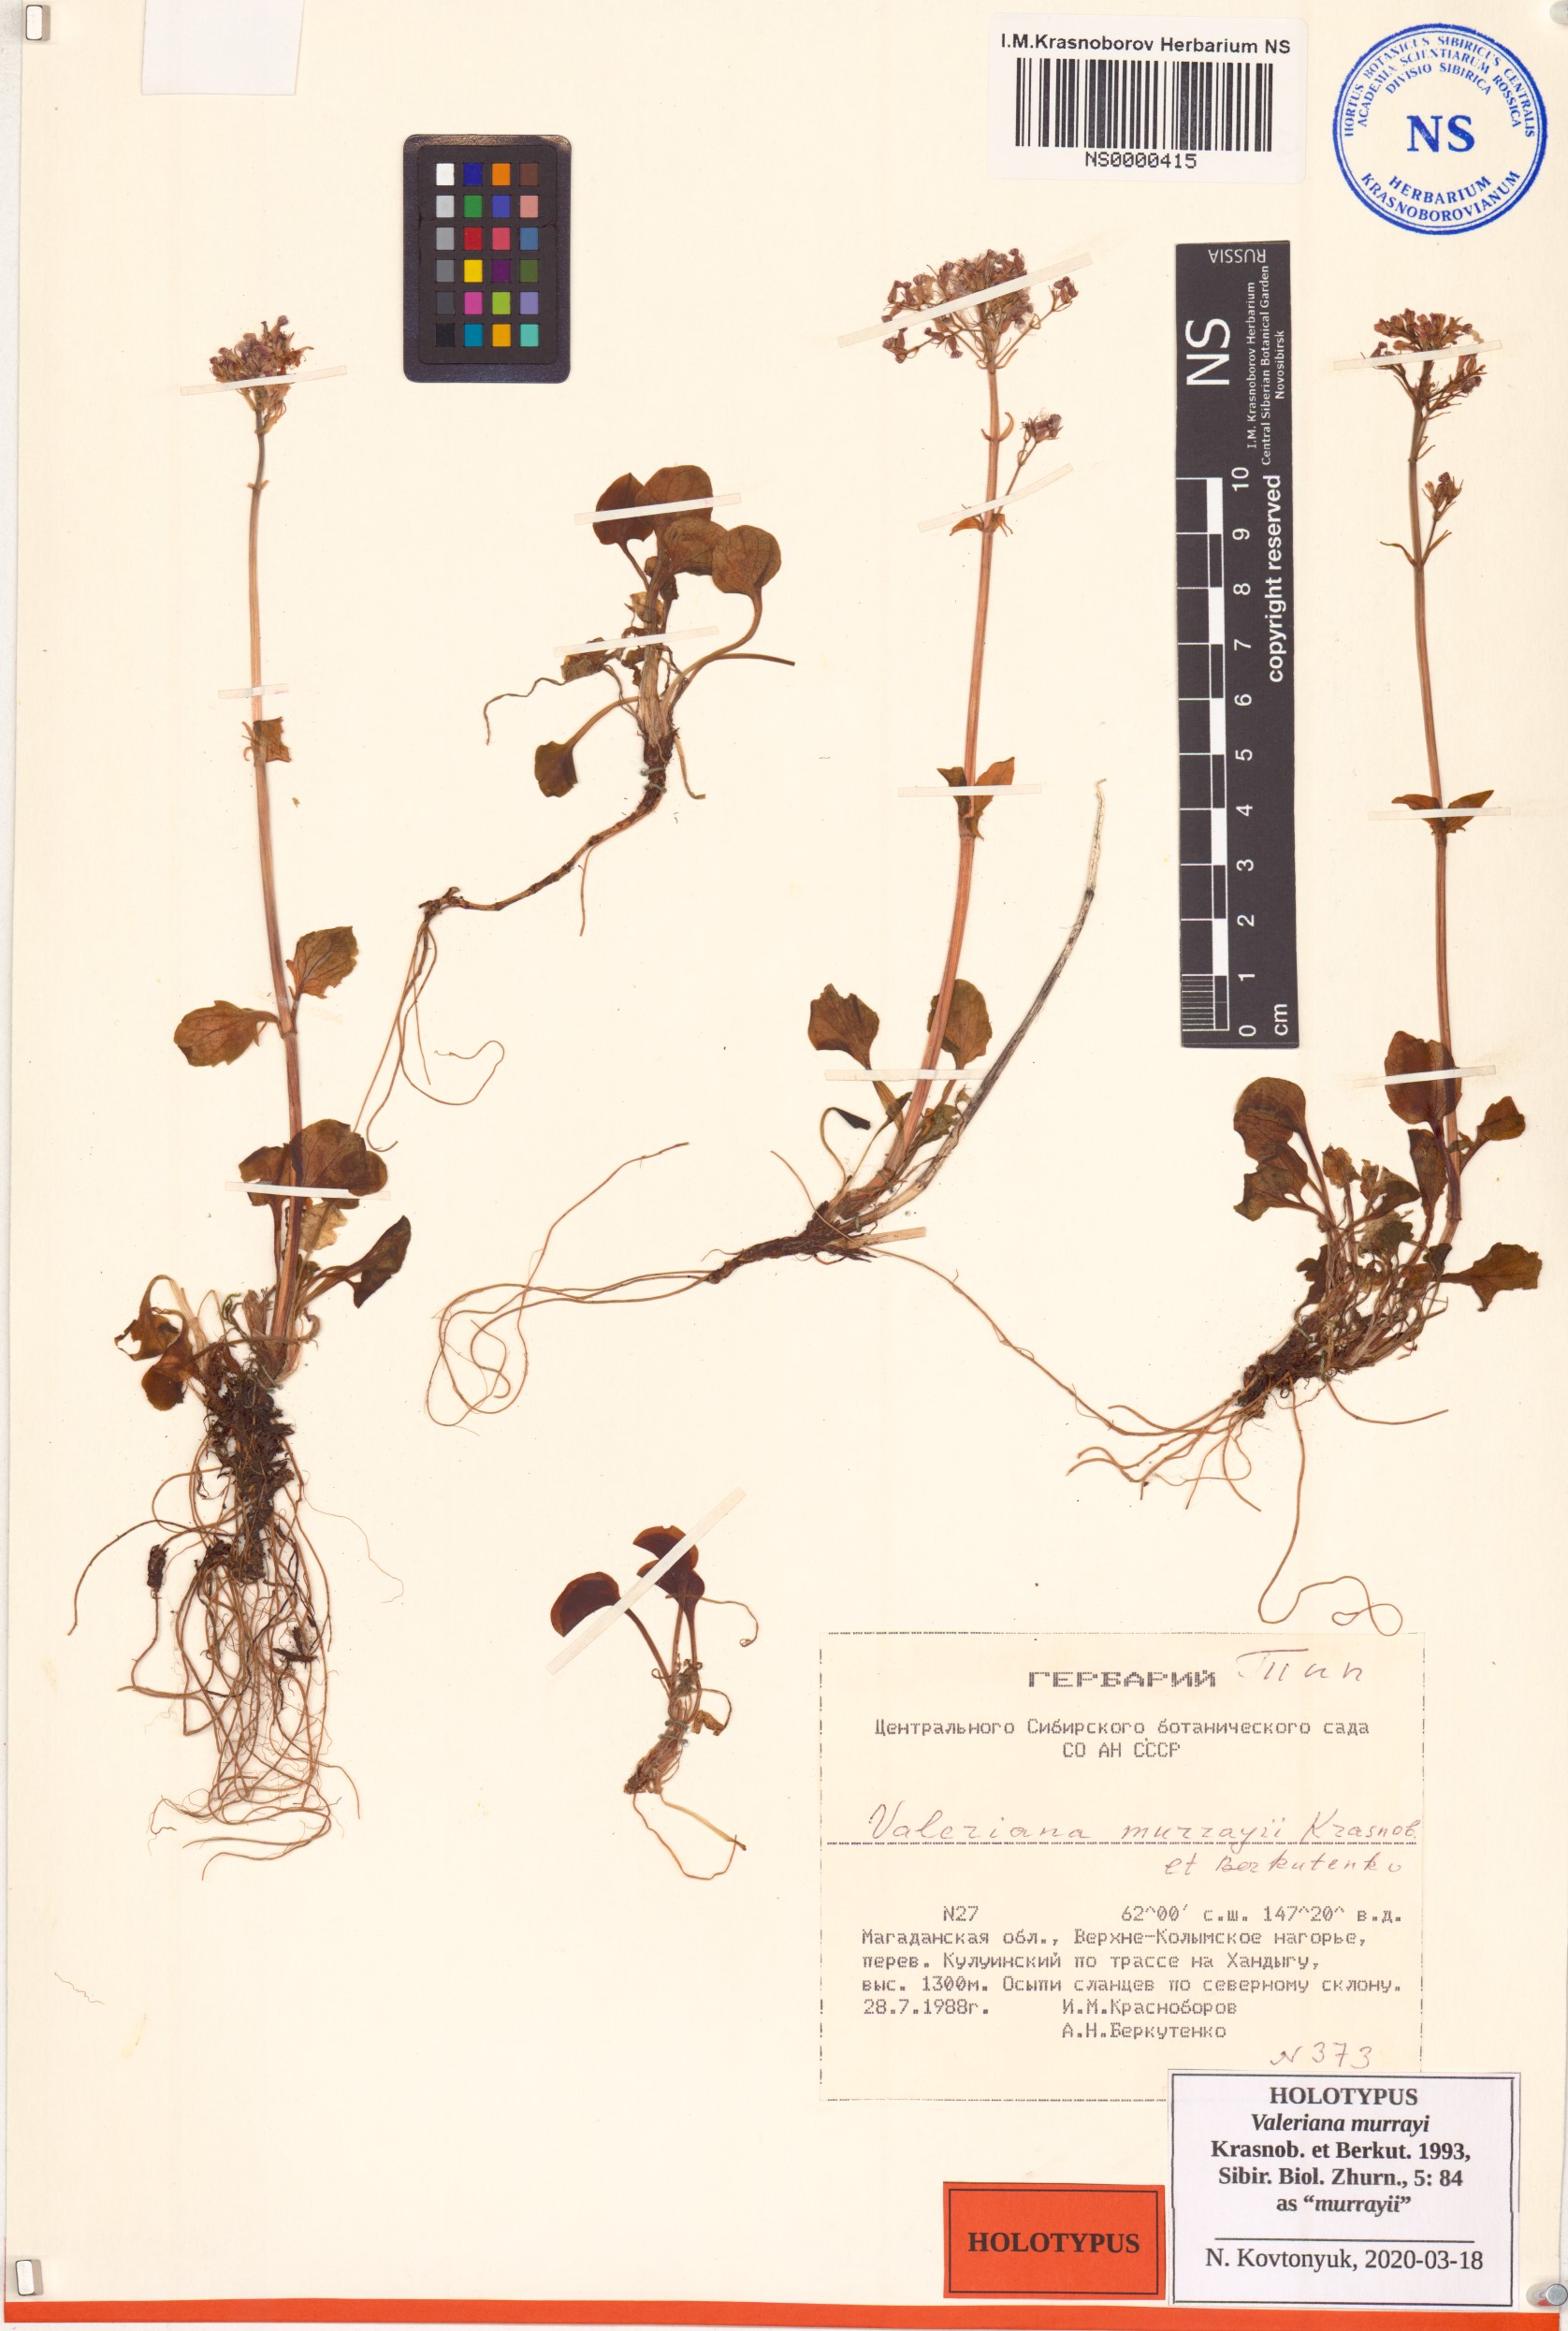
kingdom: Plantae
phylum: Tracheophyta
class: Magnoliopsida
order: Dipsacales
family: Caprifoliaceae
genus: Valeriana
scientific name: Valeriana murrayi
